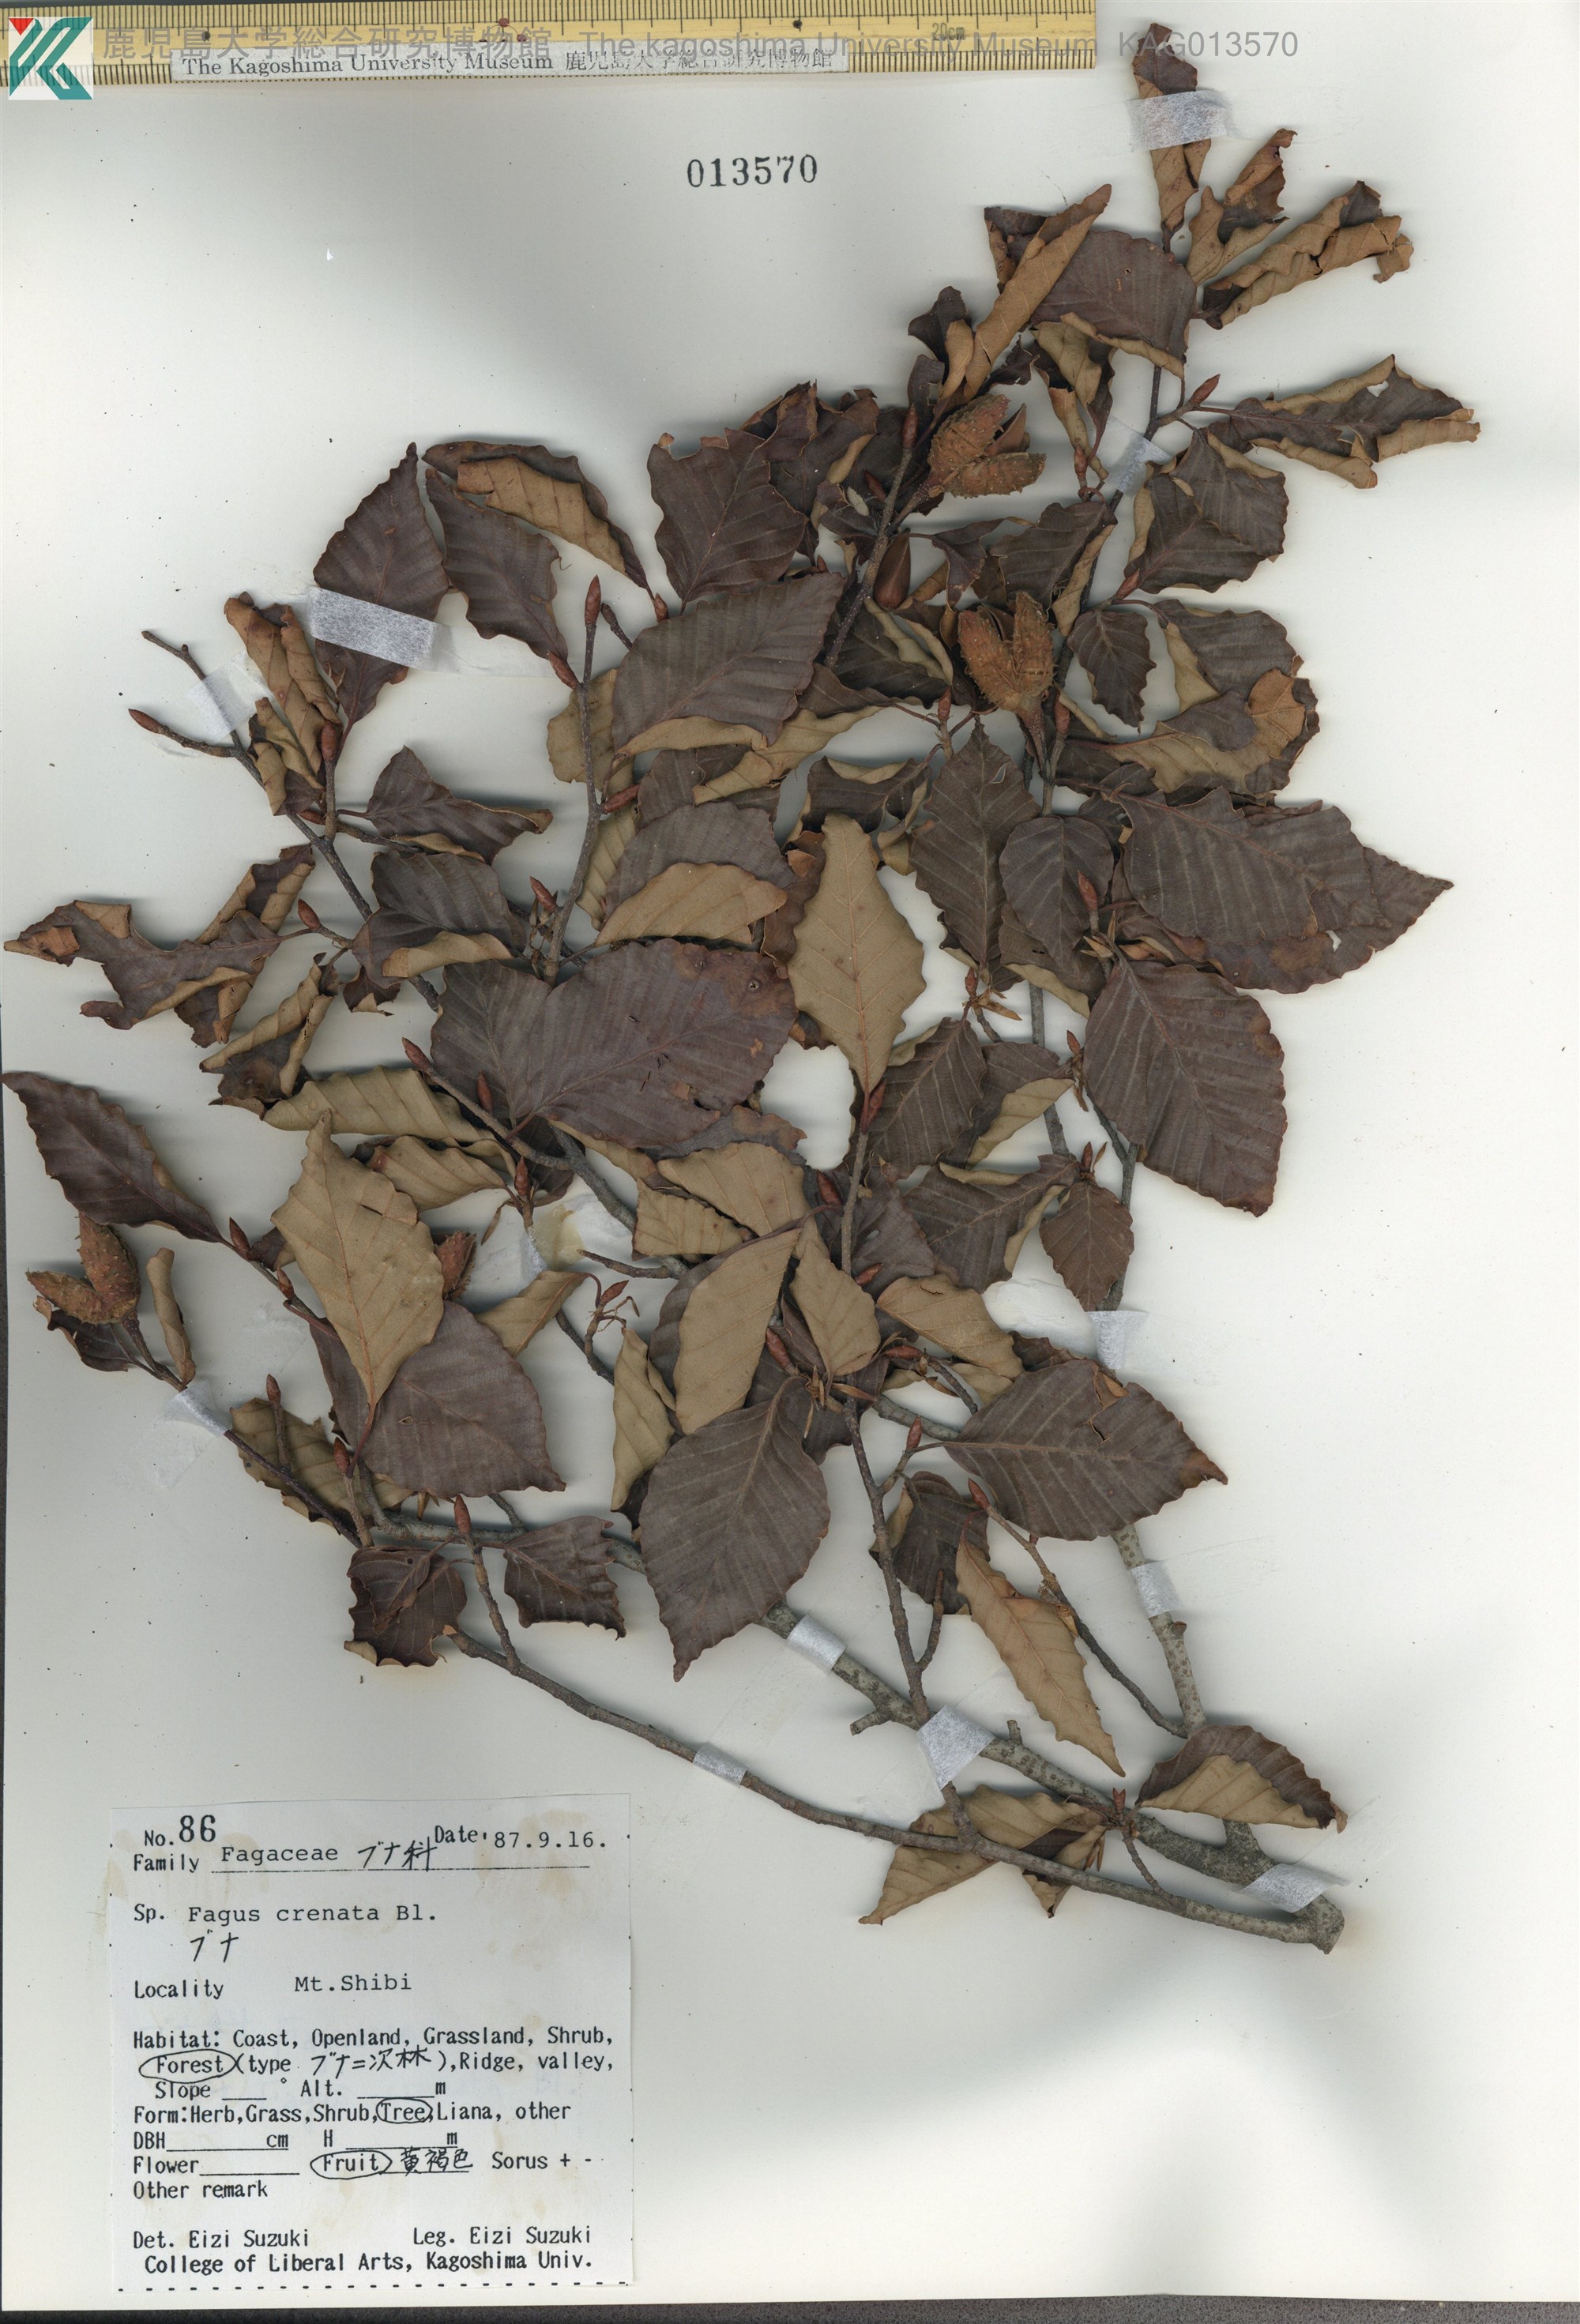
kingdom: Plantae
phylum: Tracheophyta
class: Magnoliopsida
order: Fagales
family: Fagaceae
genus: Fagus
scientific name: Fagus crenata
